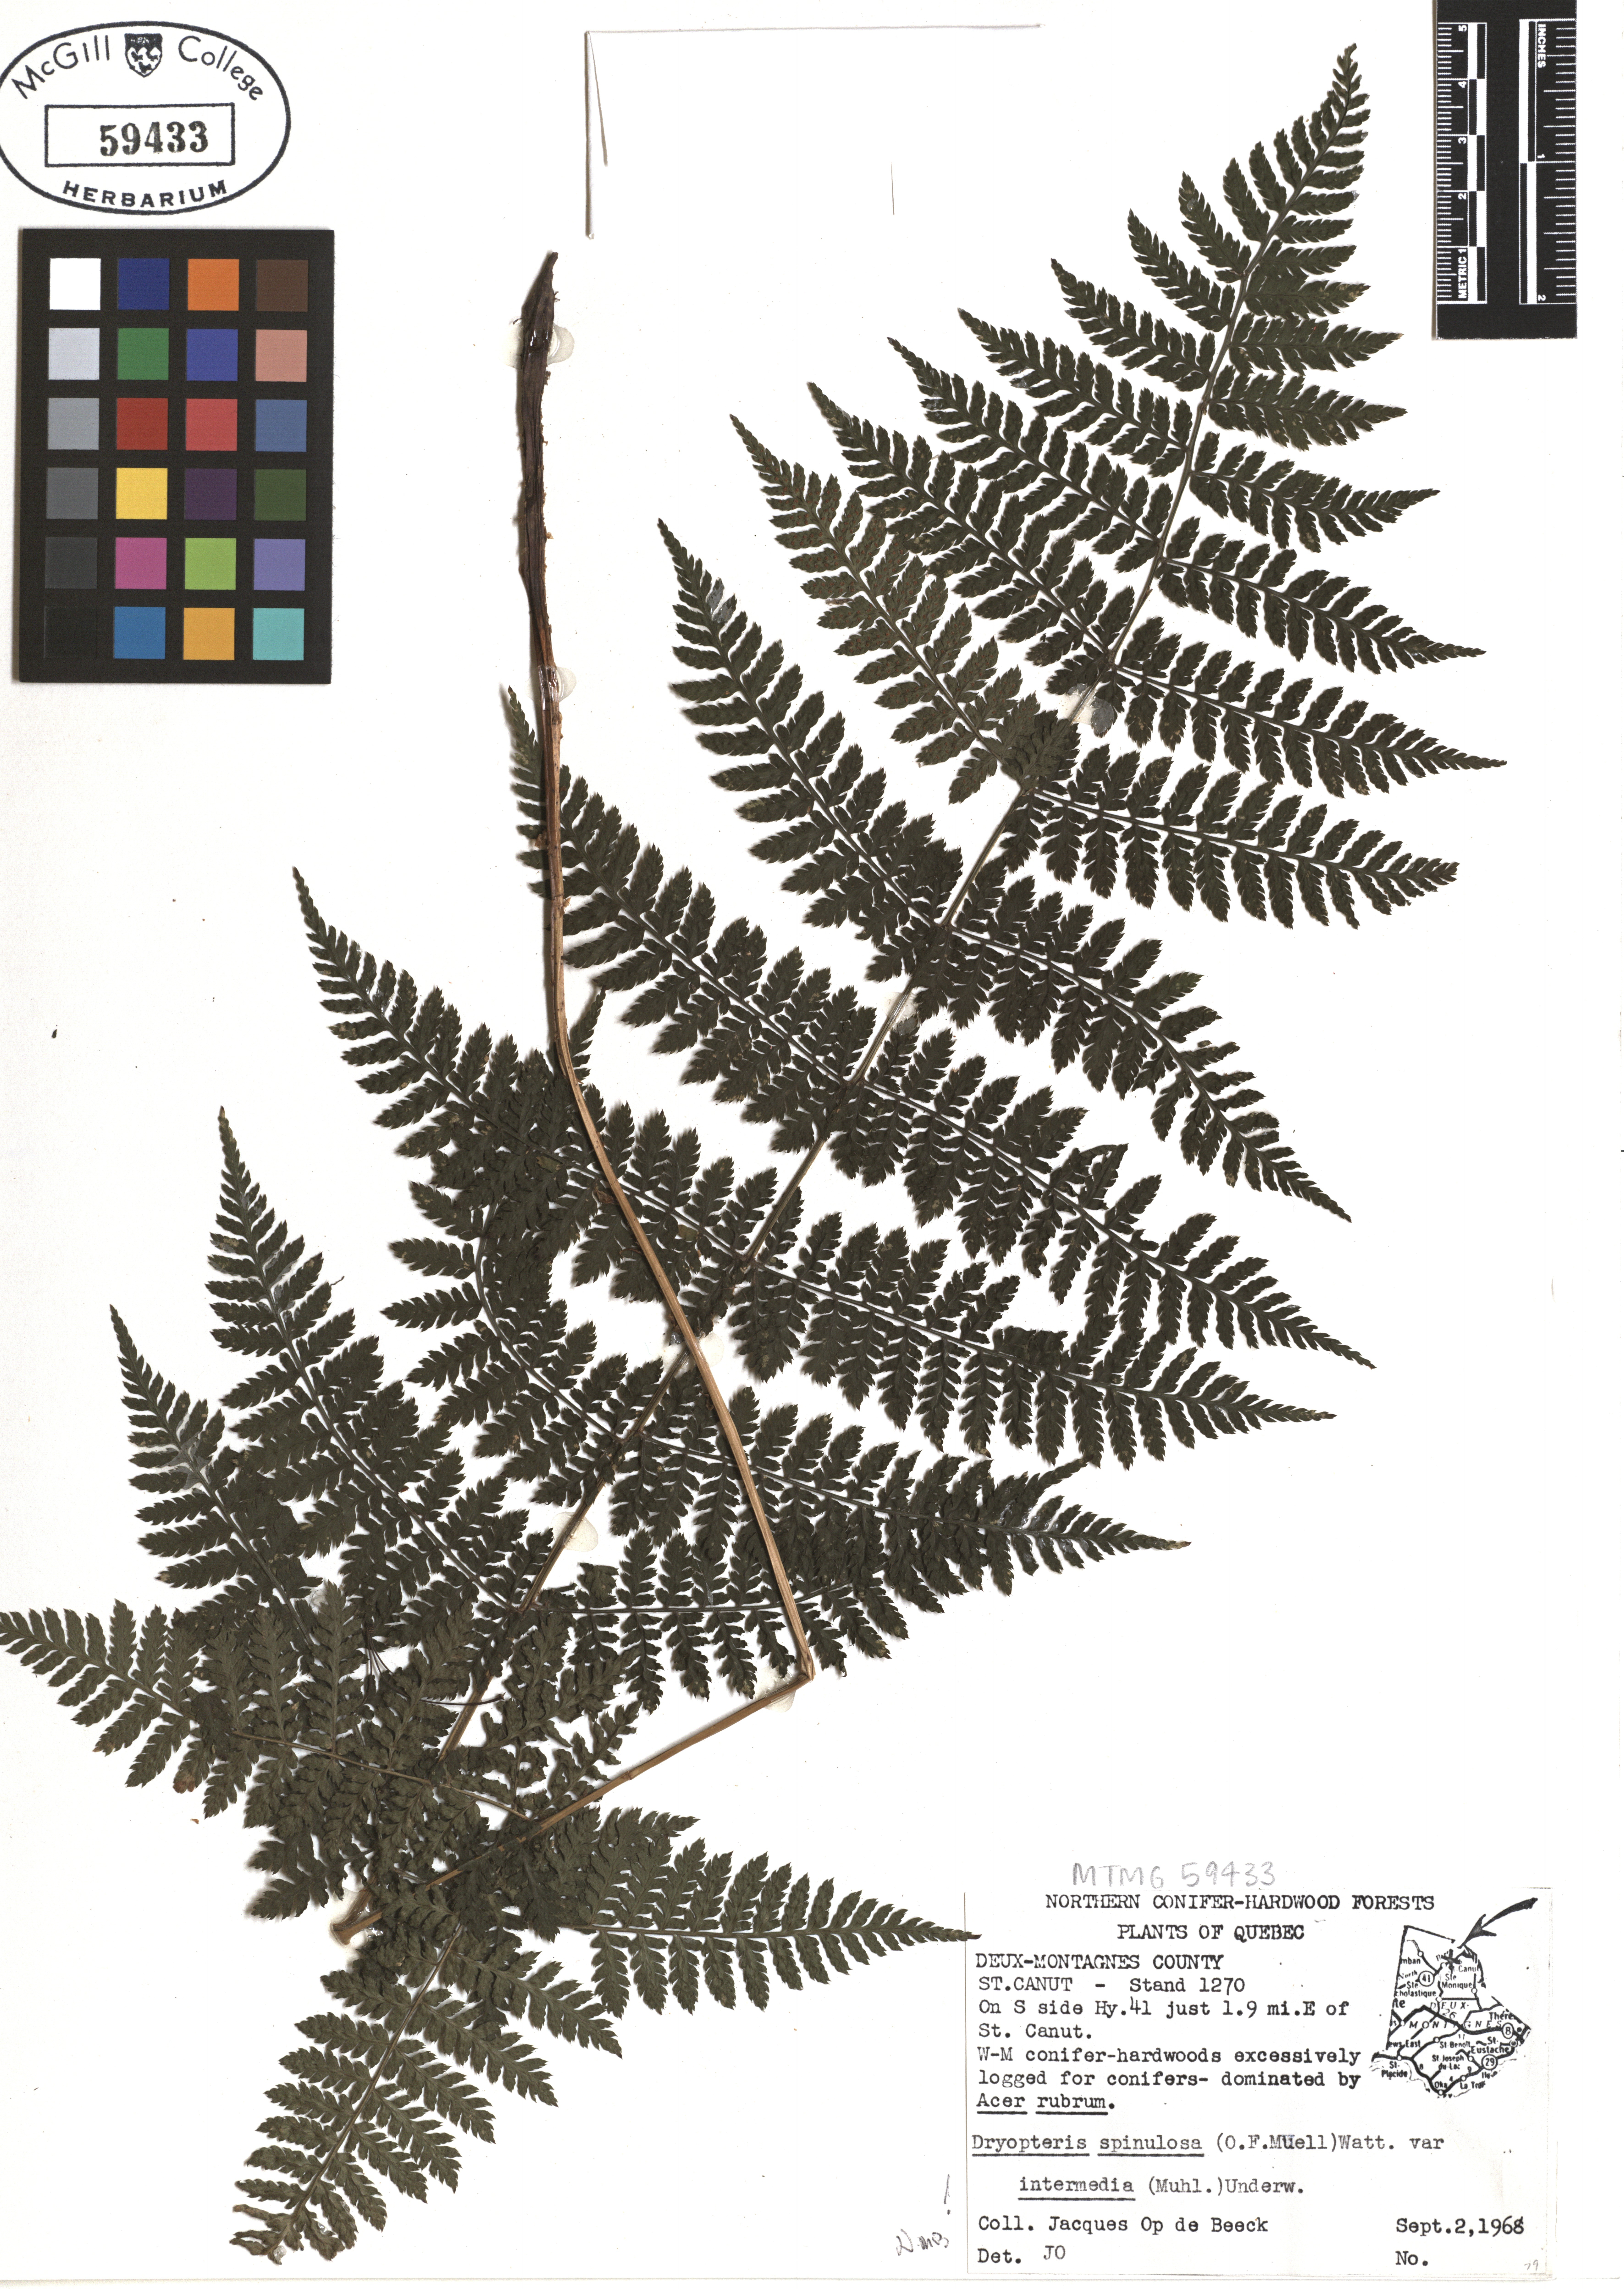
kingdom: Plantae
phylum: Tracheophyta
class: Polypodiopsida
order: Polypodiales
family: Dryopteridaceae
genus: Dryopteris
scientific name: Dryopteris intermedia
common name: Evergreen wood fern
